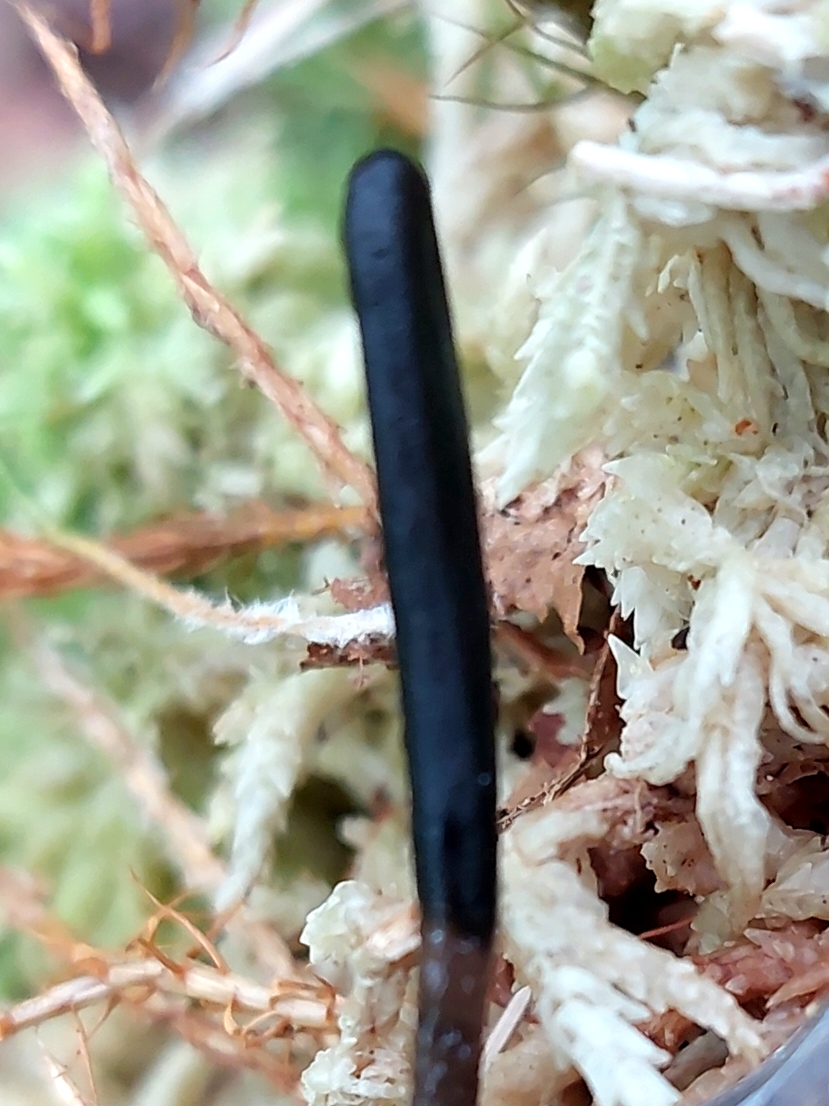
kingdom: Fungi
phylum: Ascomycota
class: Geoglossomycetes
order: Geoglossales
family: Geoglossaceae
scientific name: Geoglossaceae
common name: jordtungefamilien
